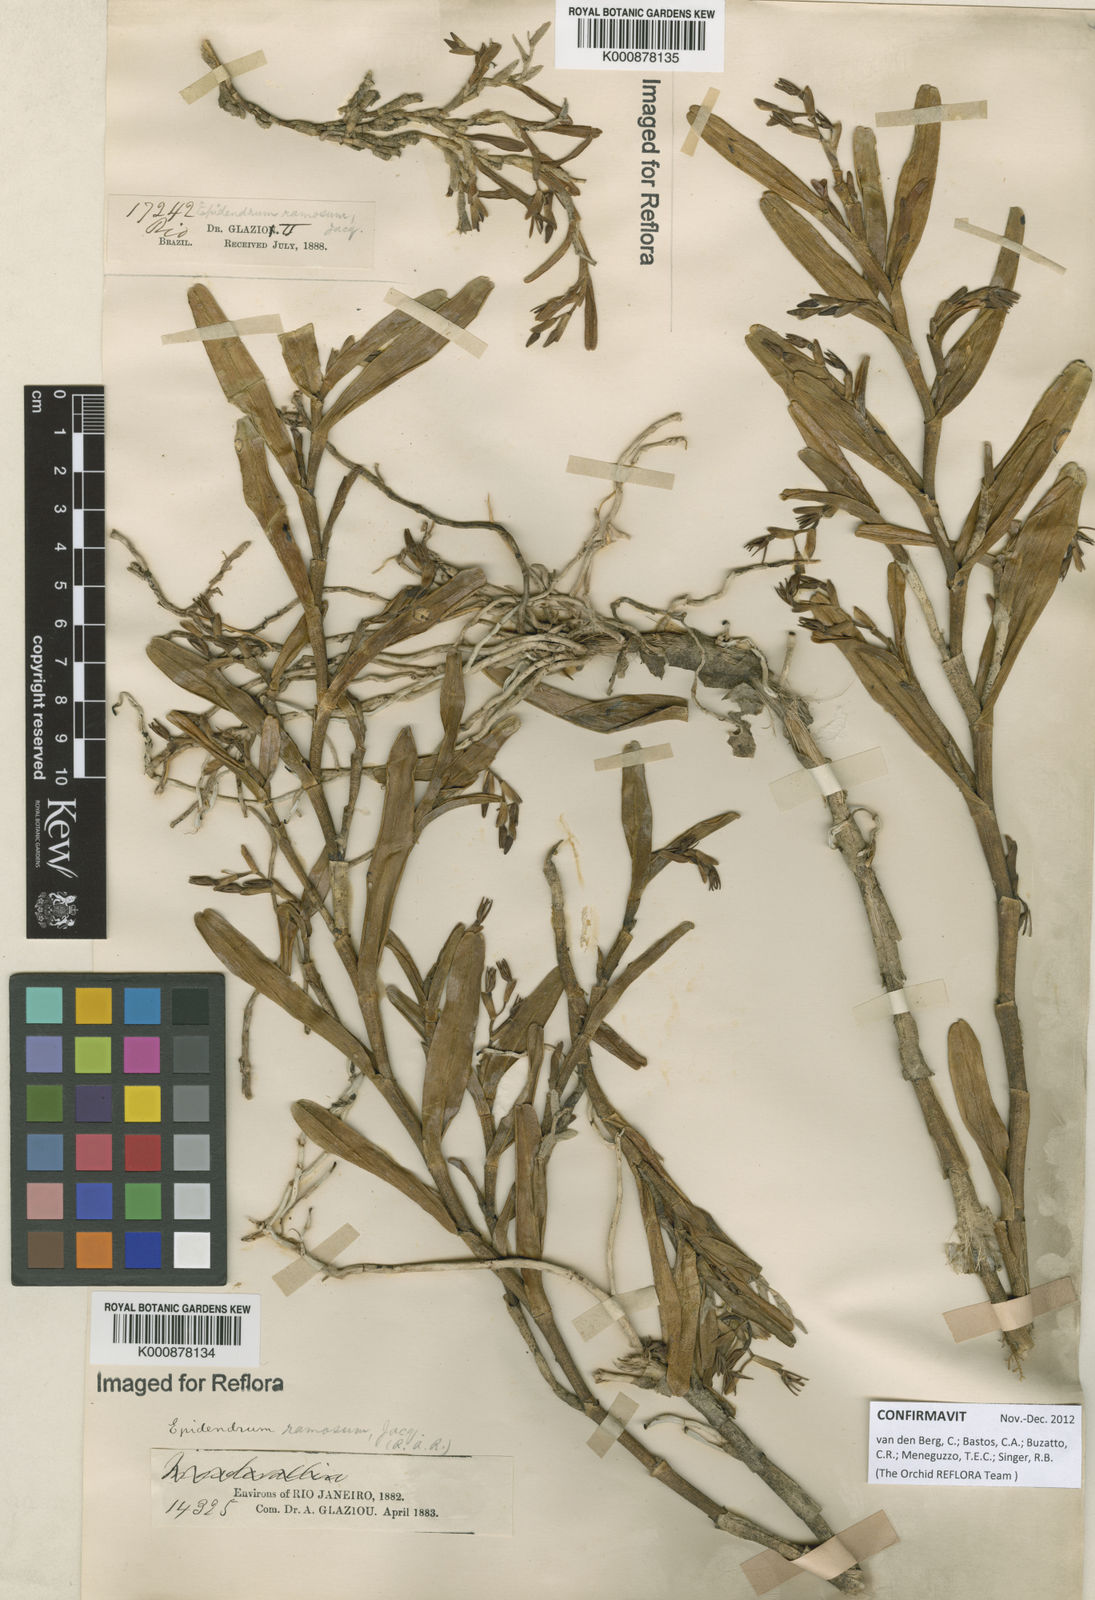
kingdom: Plantae
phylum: Tracheophyta
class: Liliopsida
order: Asparagales
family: Orchidaceae
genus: Epidendrum
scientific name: Epidendrum ramosum
